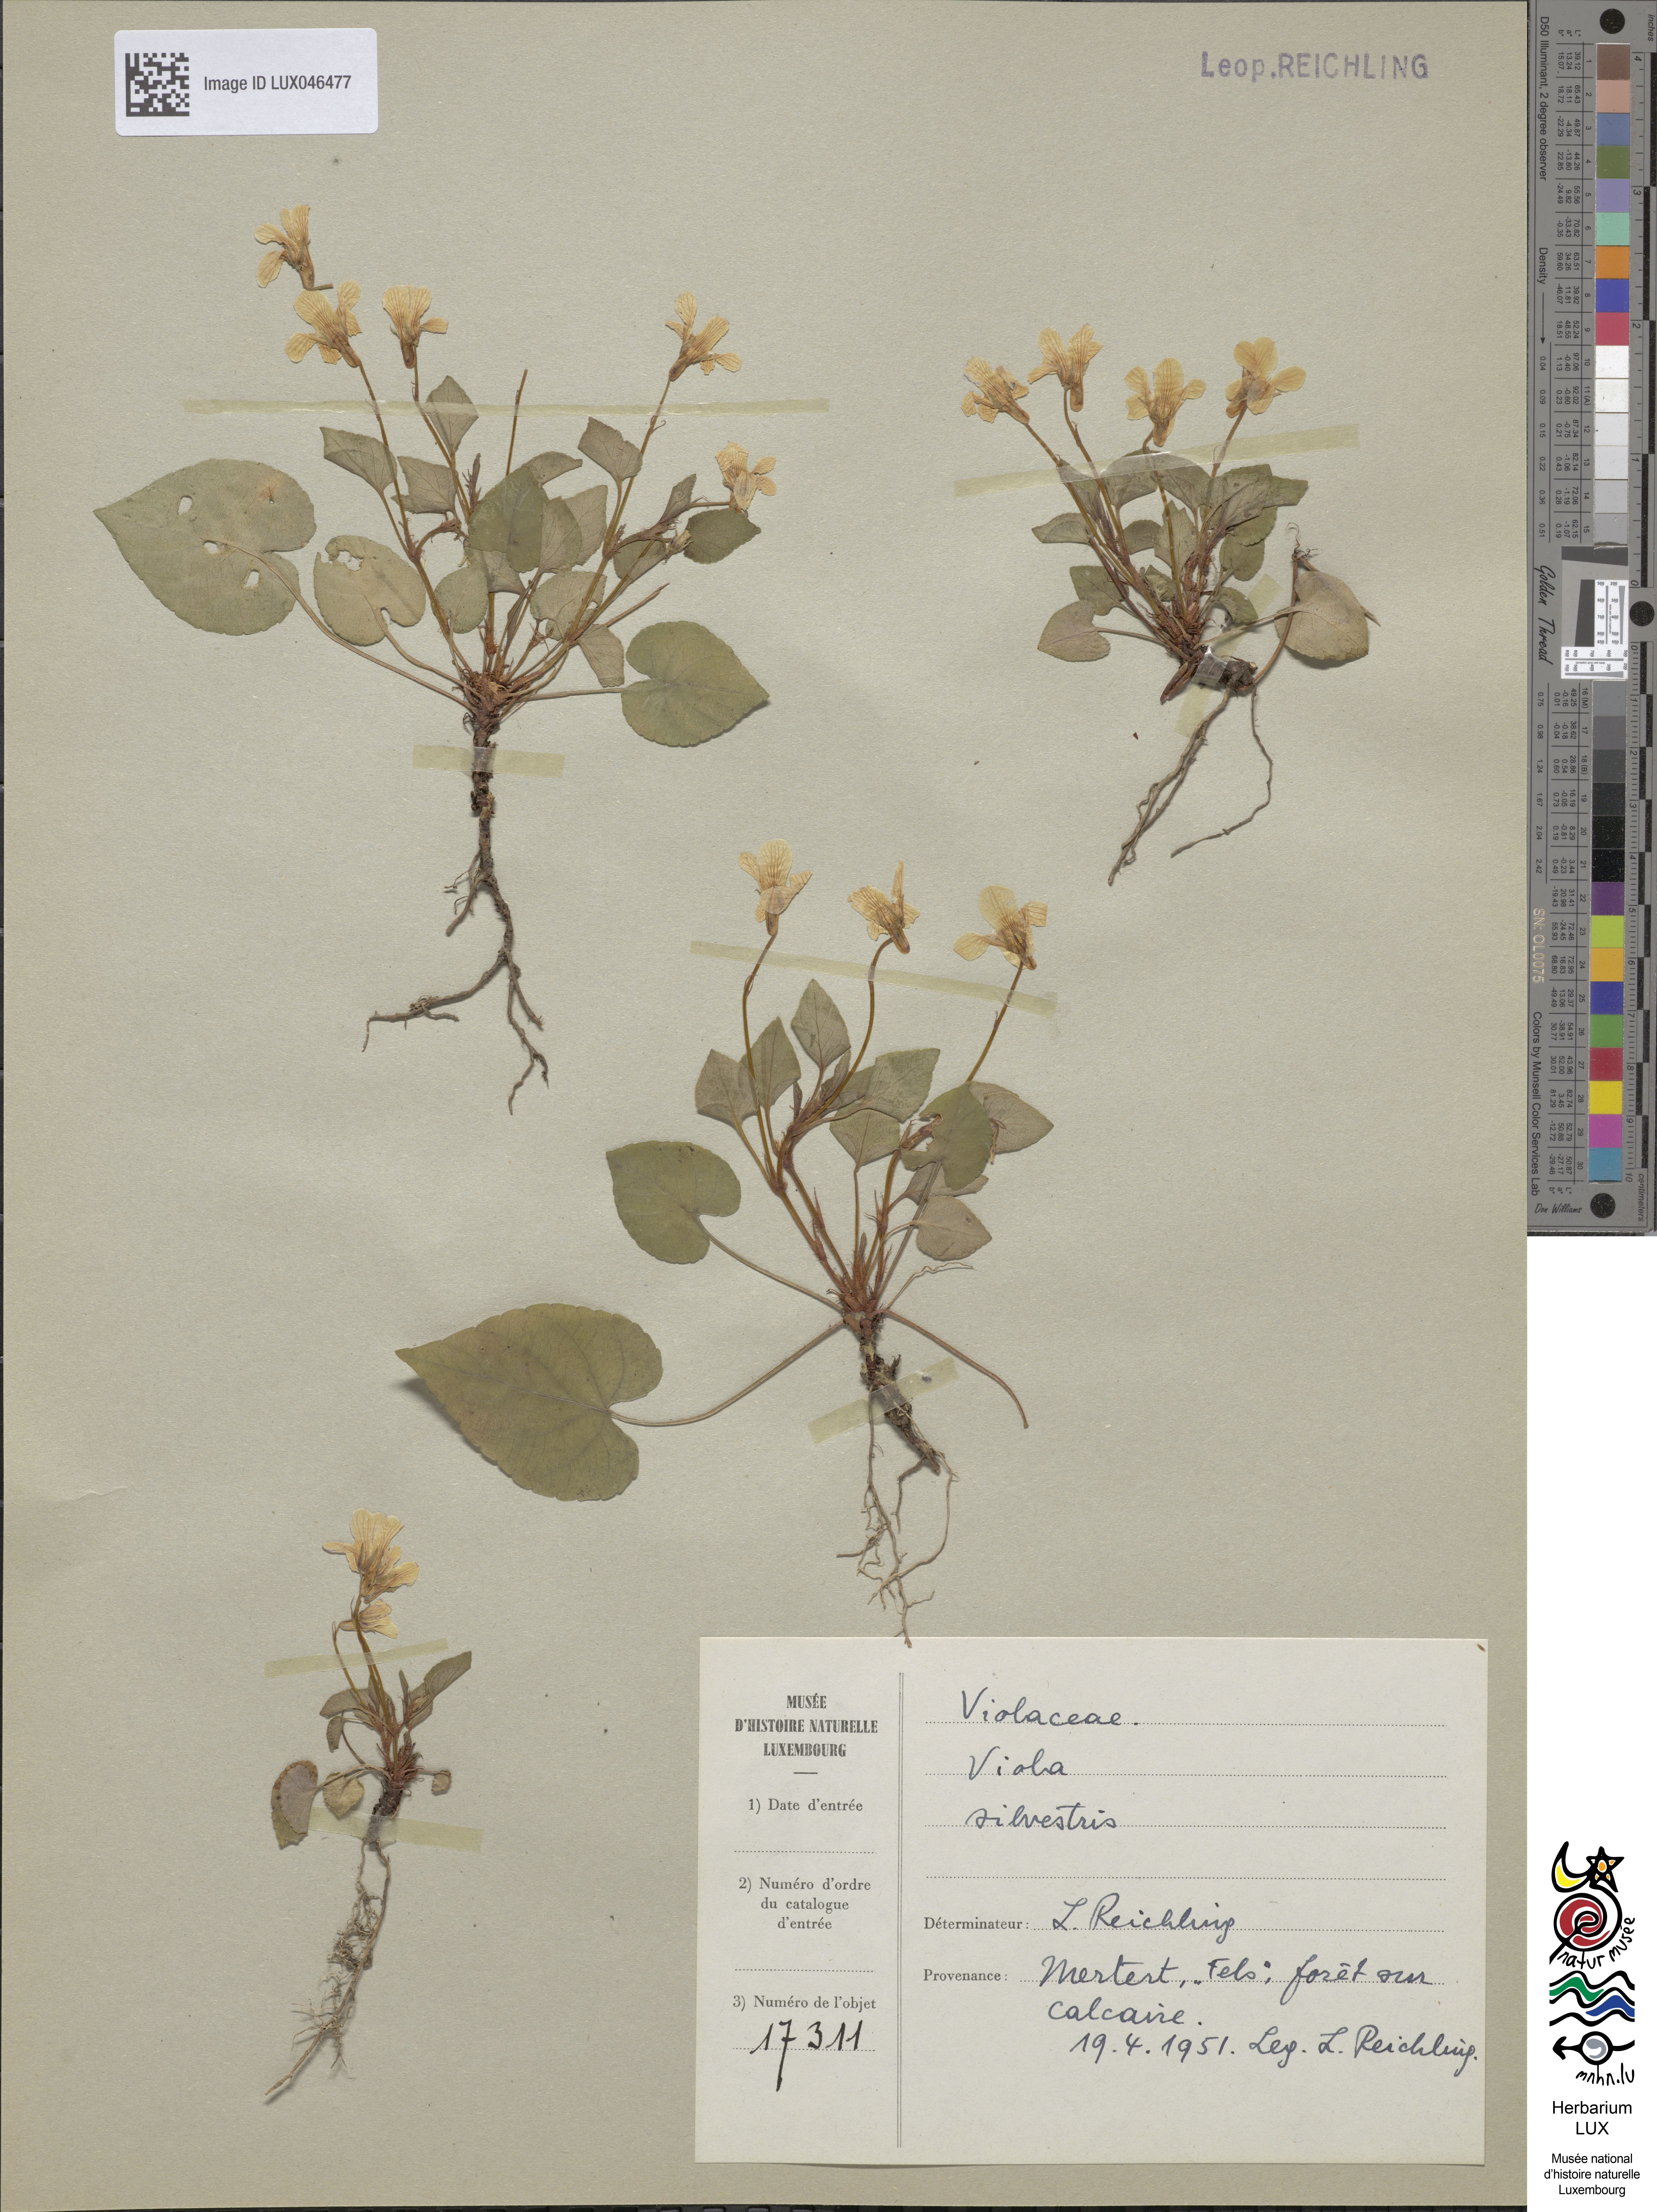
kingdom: Plantae
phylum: Tracheophyta
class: Magnoliopsida
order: Malpighiales
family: Violaceae
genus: Viola
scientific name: Viola reichenbachiana
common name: Early dog-violet
